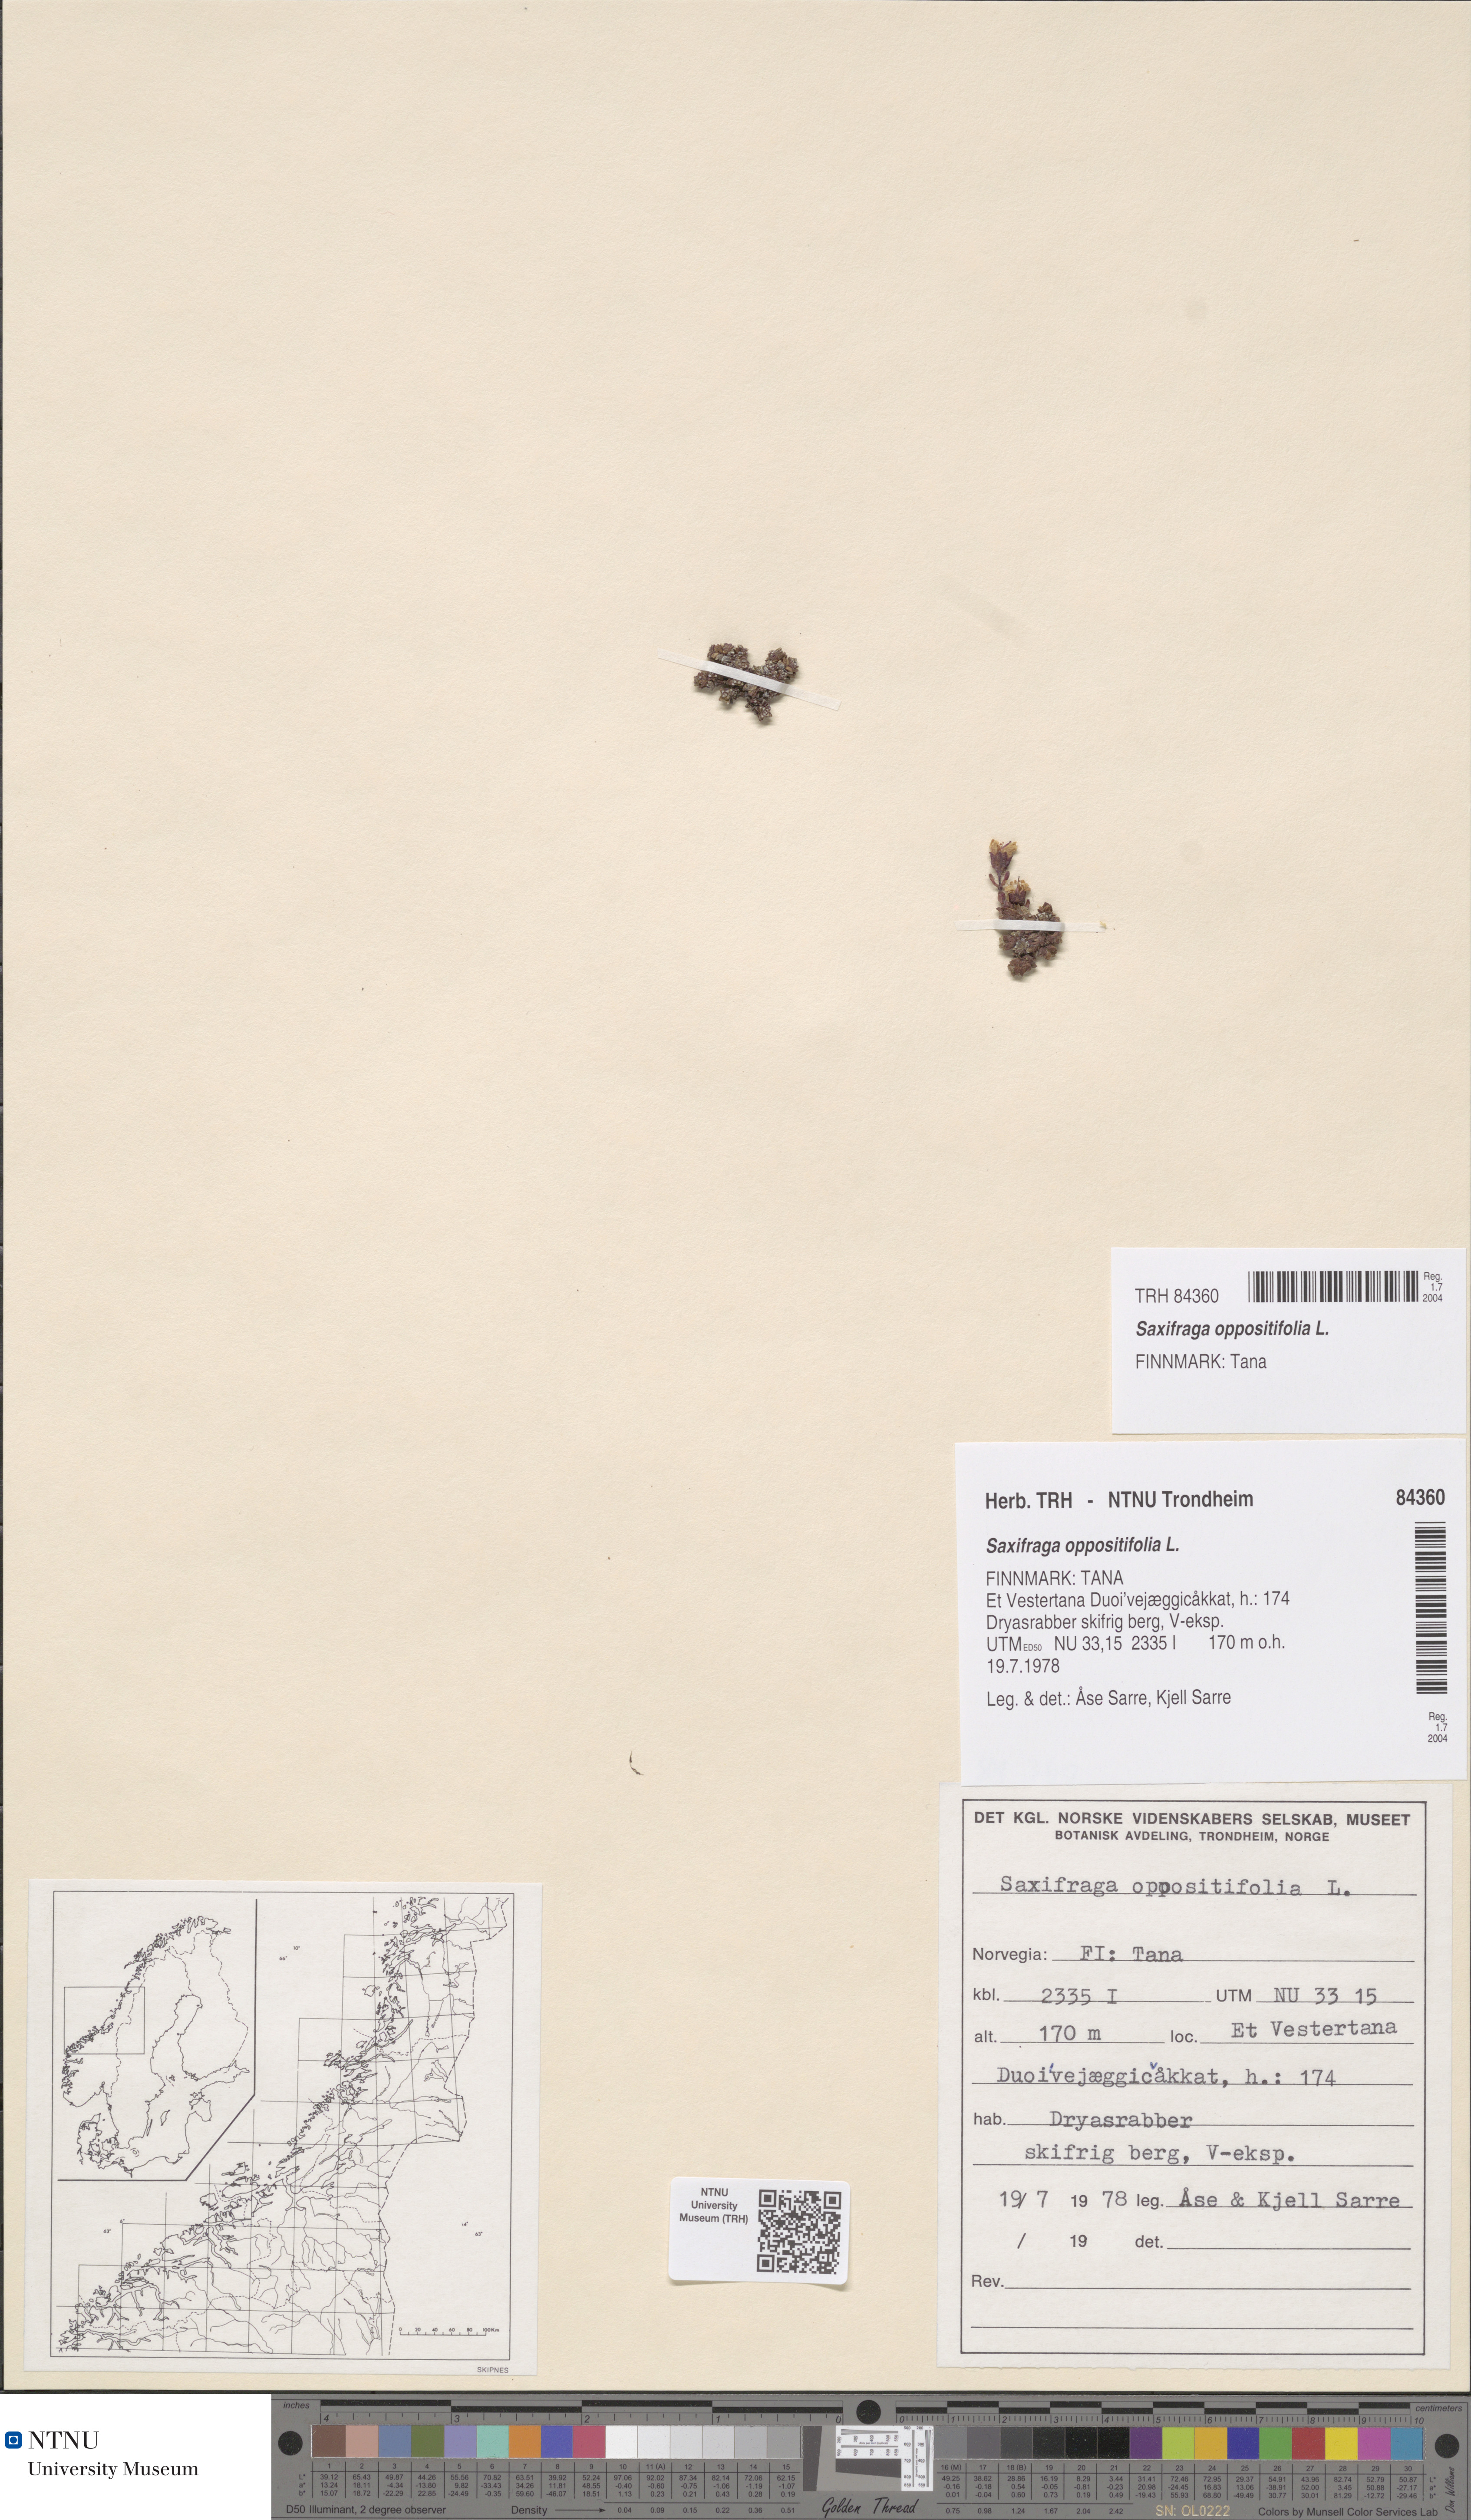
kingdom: Plantae
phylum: Tracheophyta
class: Magnoliopsida
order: Saxifragales
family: Saxifragaceae
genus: Saxifraga
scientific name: Saxifraga oppositifolia
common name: Purple saxifrage
